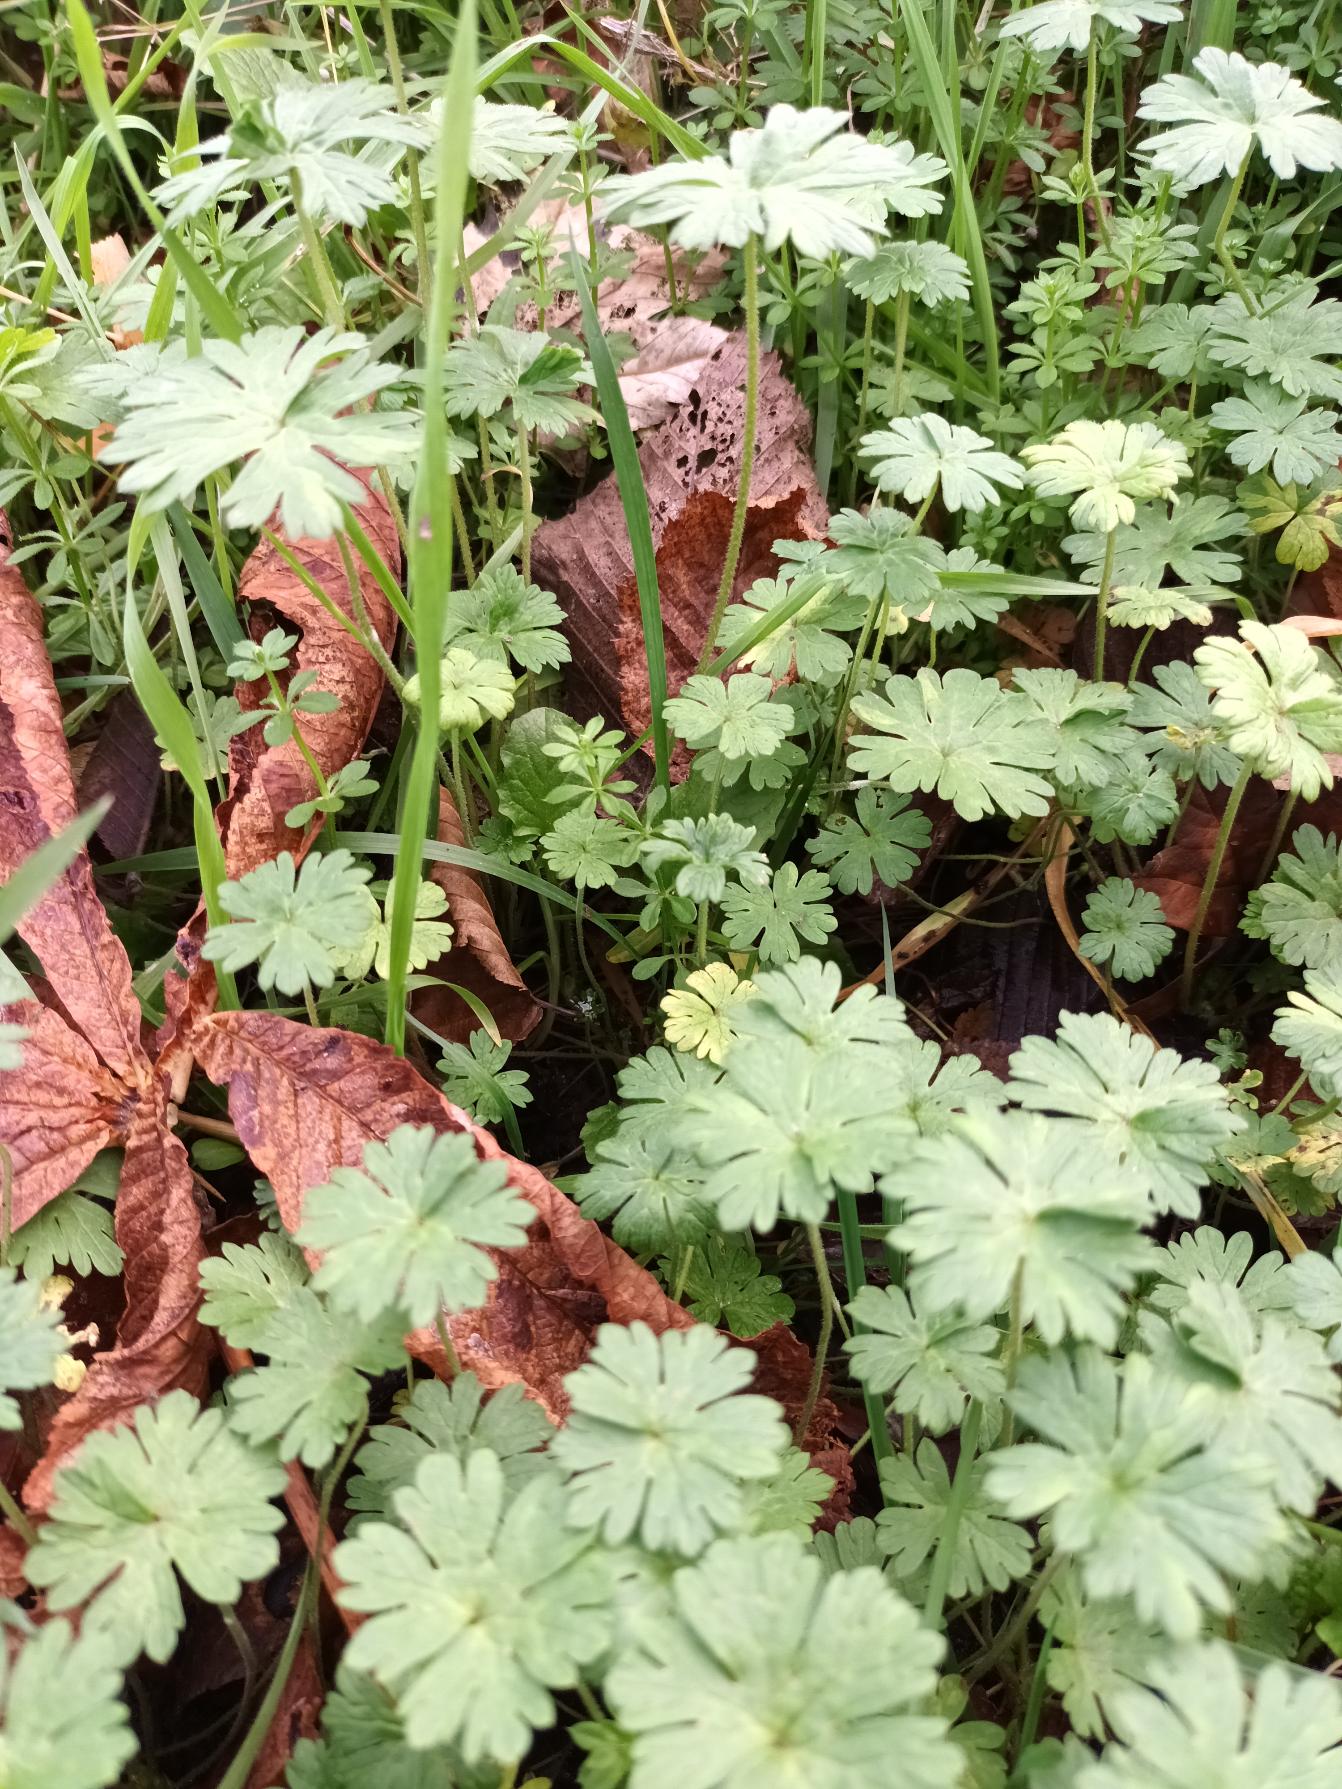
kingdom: Plantae
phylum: Tracheophyta
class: Magnoliopsida
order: Geraniales
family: Geraniaceae
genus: Geranium
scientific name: Geranium pusillum
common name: Liden storkenæb
